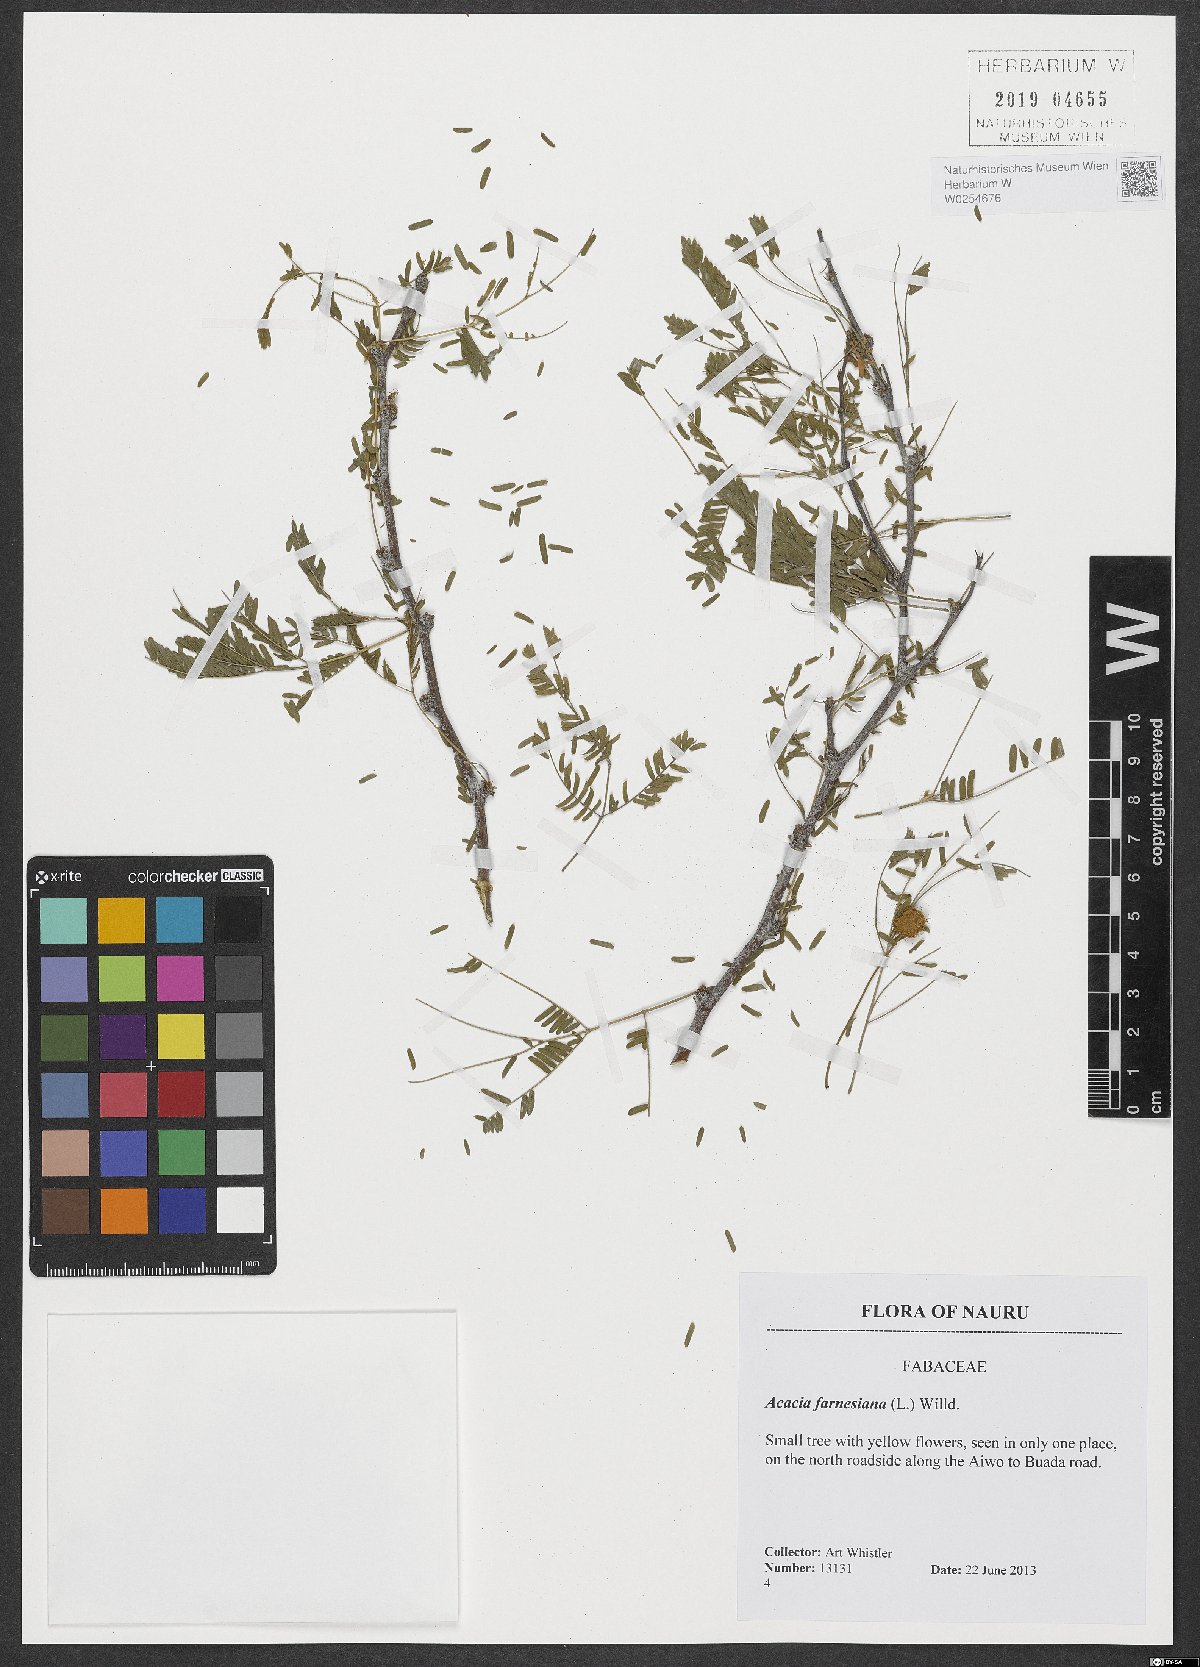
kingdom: Plantae
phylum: Tracheophyta
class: Magnoliopsida
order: Fabales
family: Fabaceae
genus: Vachellia
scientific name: Vachellia farnesiana
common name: Sweet acacia
